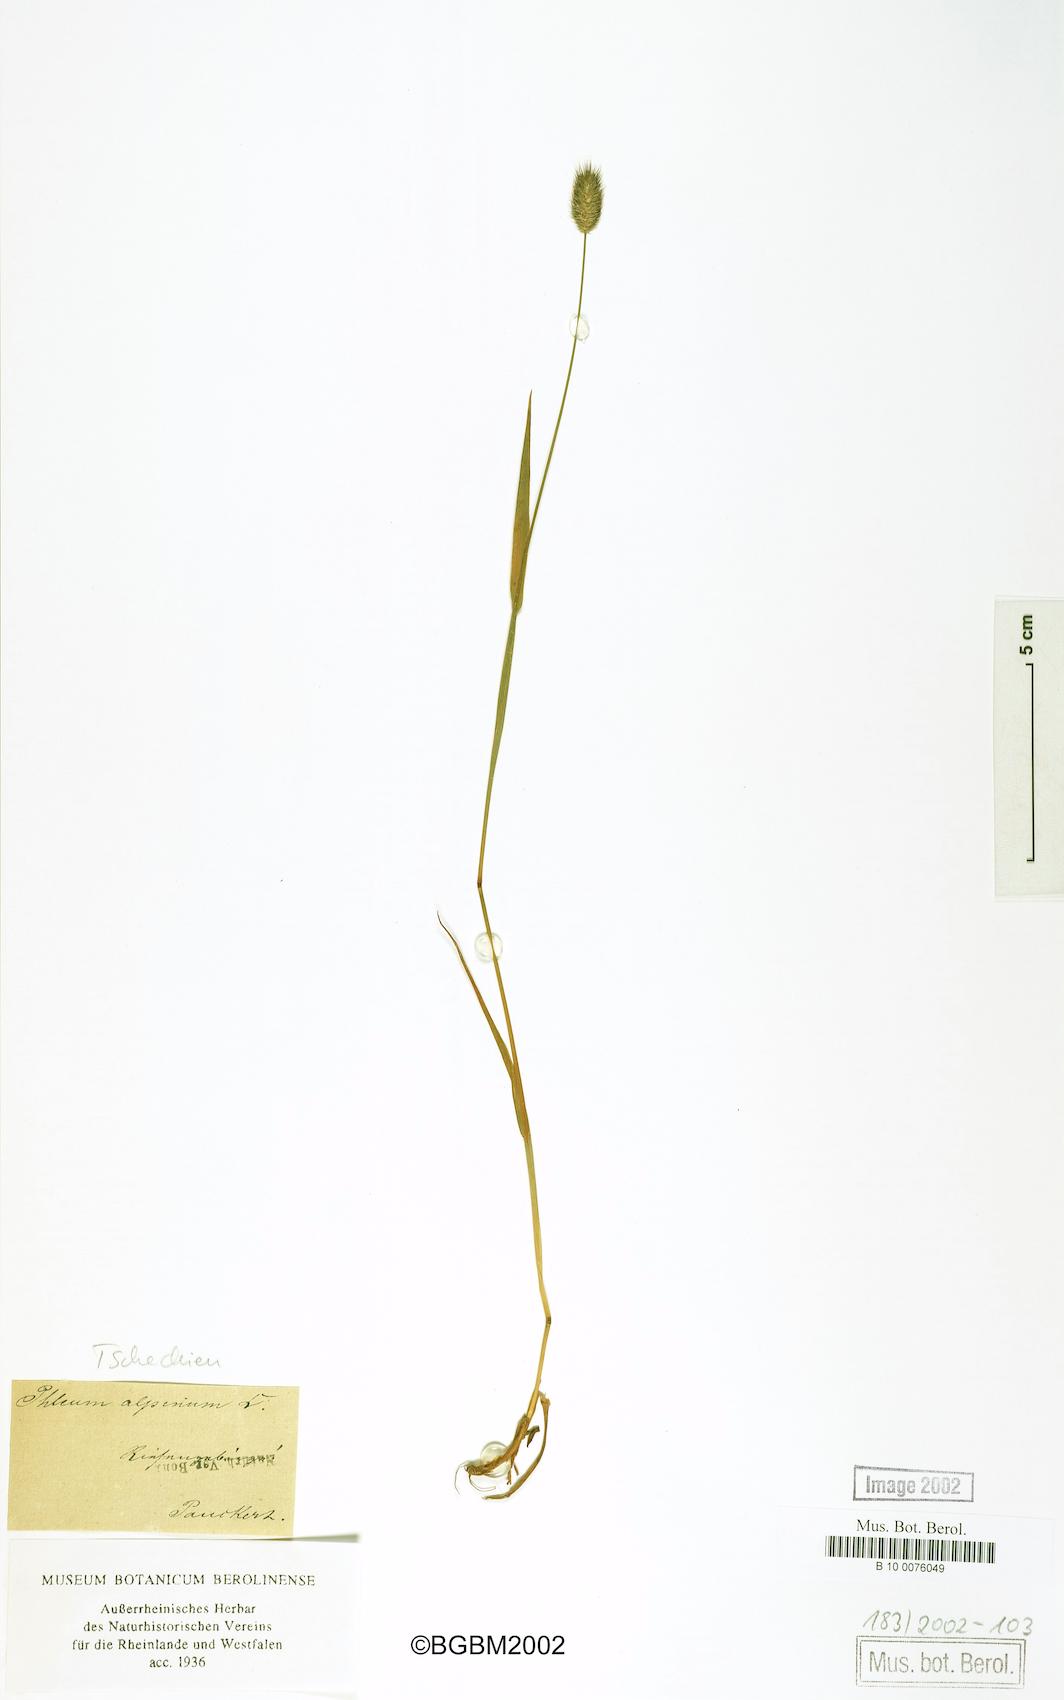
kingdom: Plantae
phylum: Tracheophyta
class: Liliopsida
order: Poales
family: Poaceae
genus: Phleum
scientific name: Phleum alpinum
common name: Alpine cat's-tail
